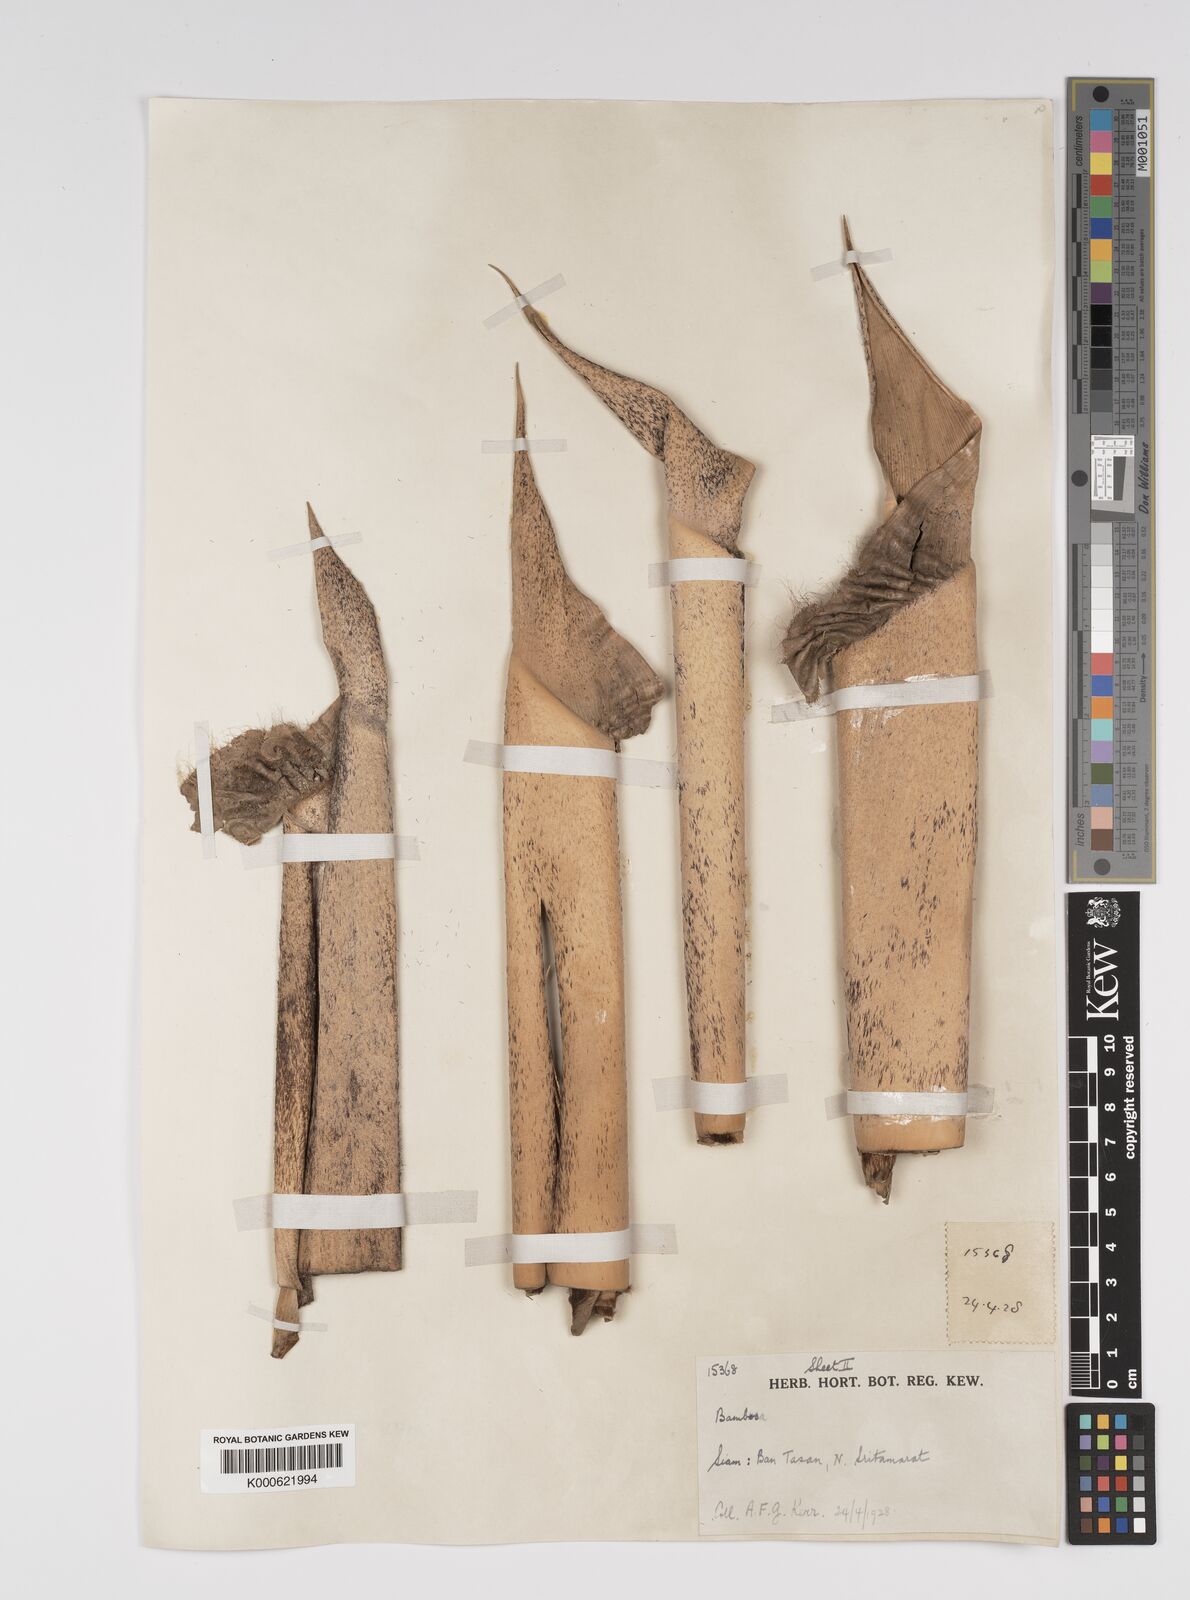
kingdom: Plantae
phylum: Tracheophyta
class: Liliopsida
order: Poales
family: Poaceae
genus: Bambusa
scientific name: Bambusa
